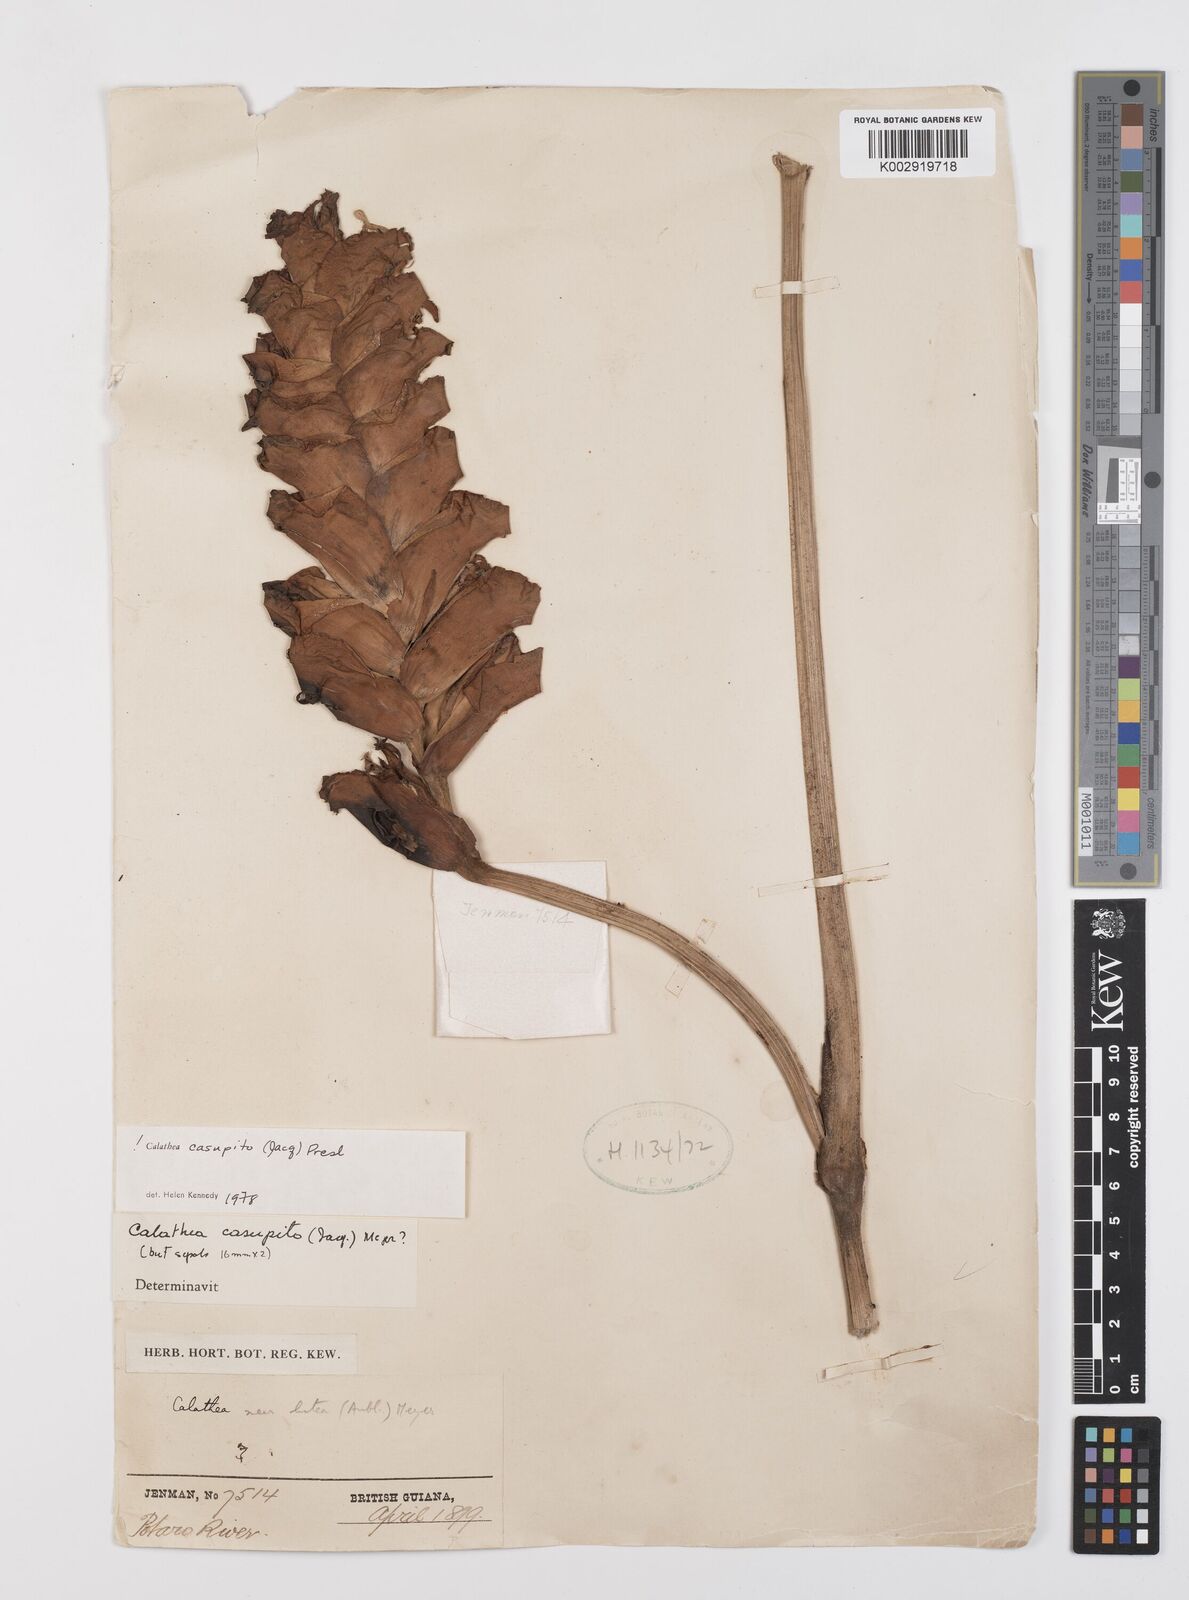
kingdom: Plantae
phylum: Tracheophyta
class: Liliopsida
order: Zingiberales
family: Marantaceae
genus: Calathea
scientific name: Calathea casupito
